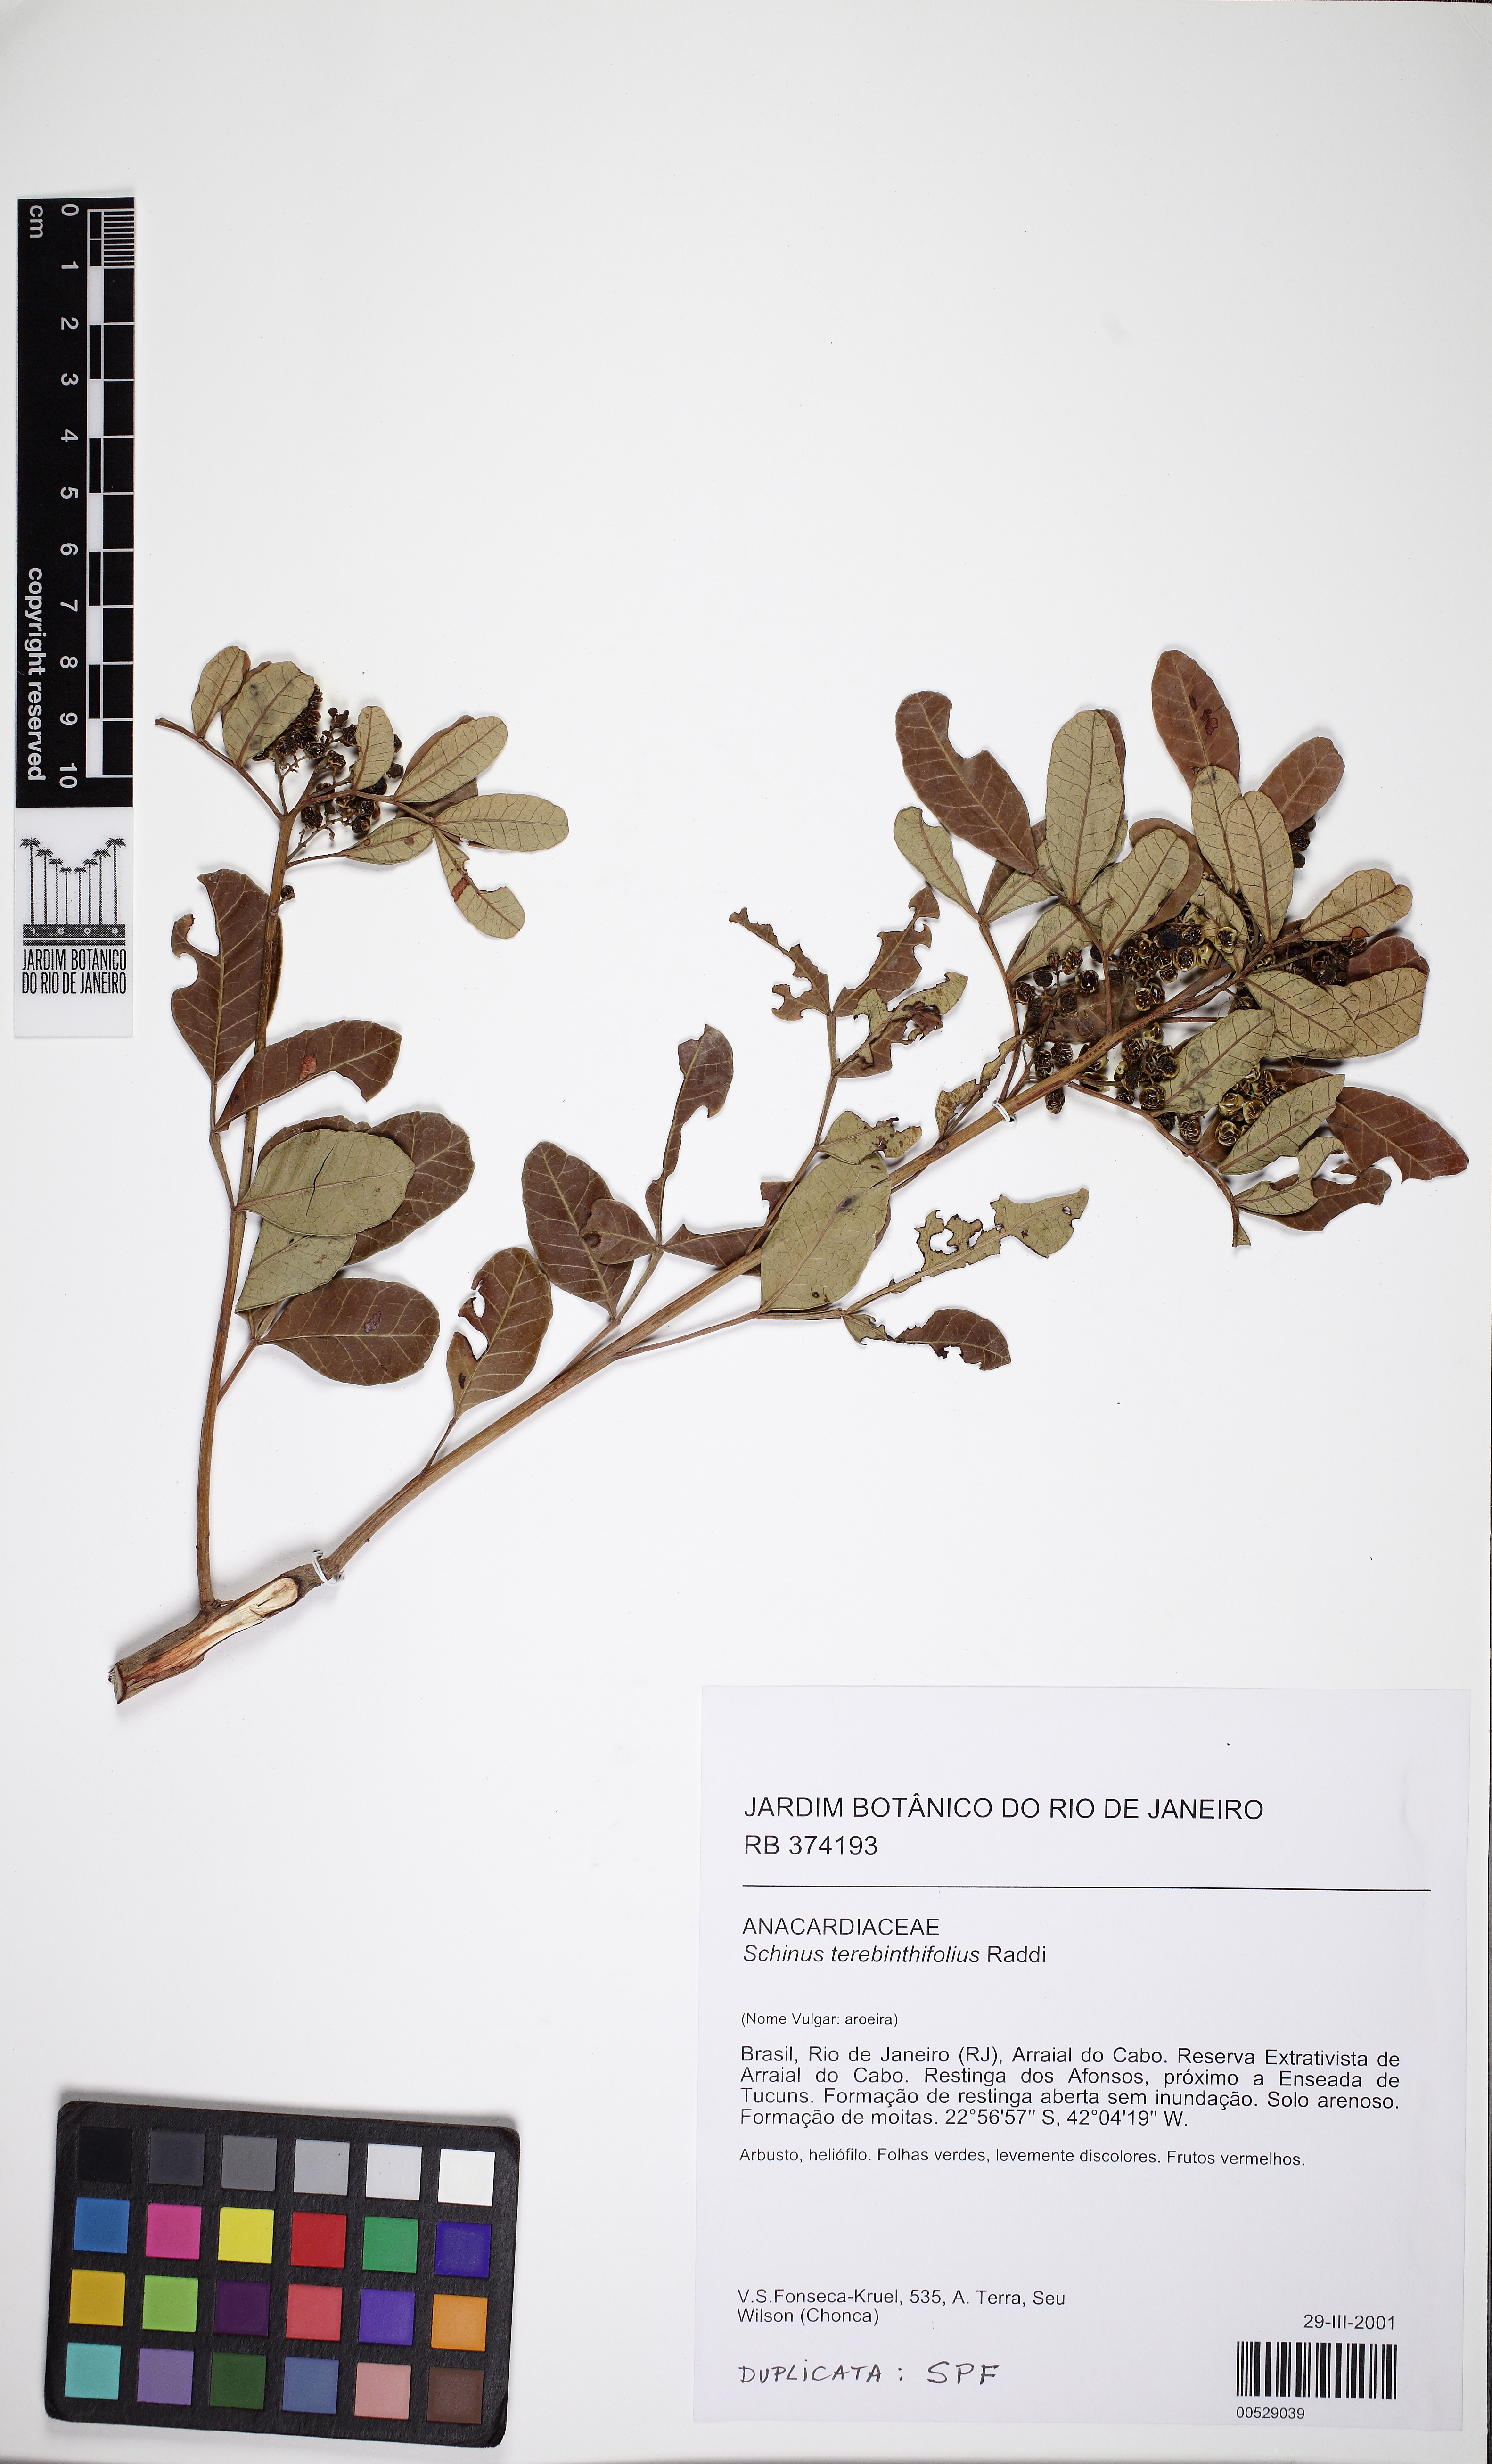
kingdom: Plantae
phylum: Tracheophyta
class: Magnoliopsida
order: Sapindales
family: Anacardiaceae
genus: Schinus
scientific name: Schinus terebinthifolia
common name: Brazilian peppertree
